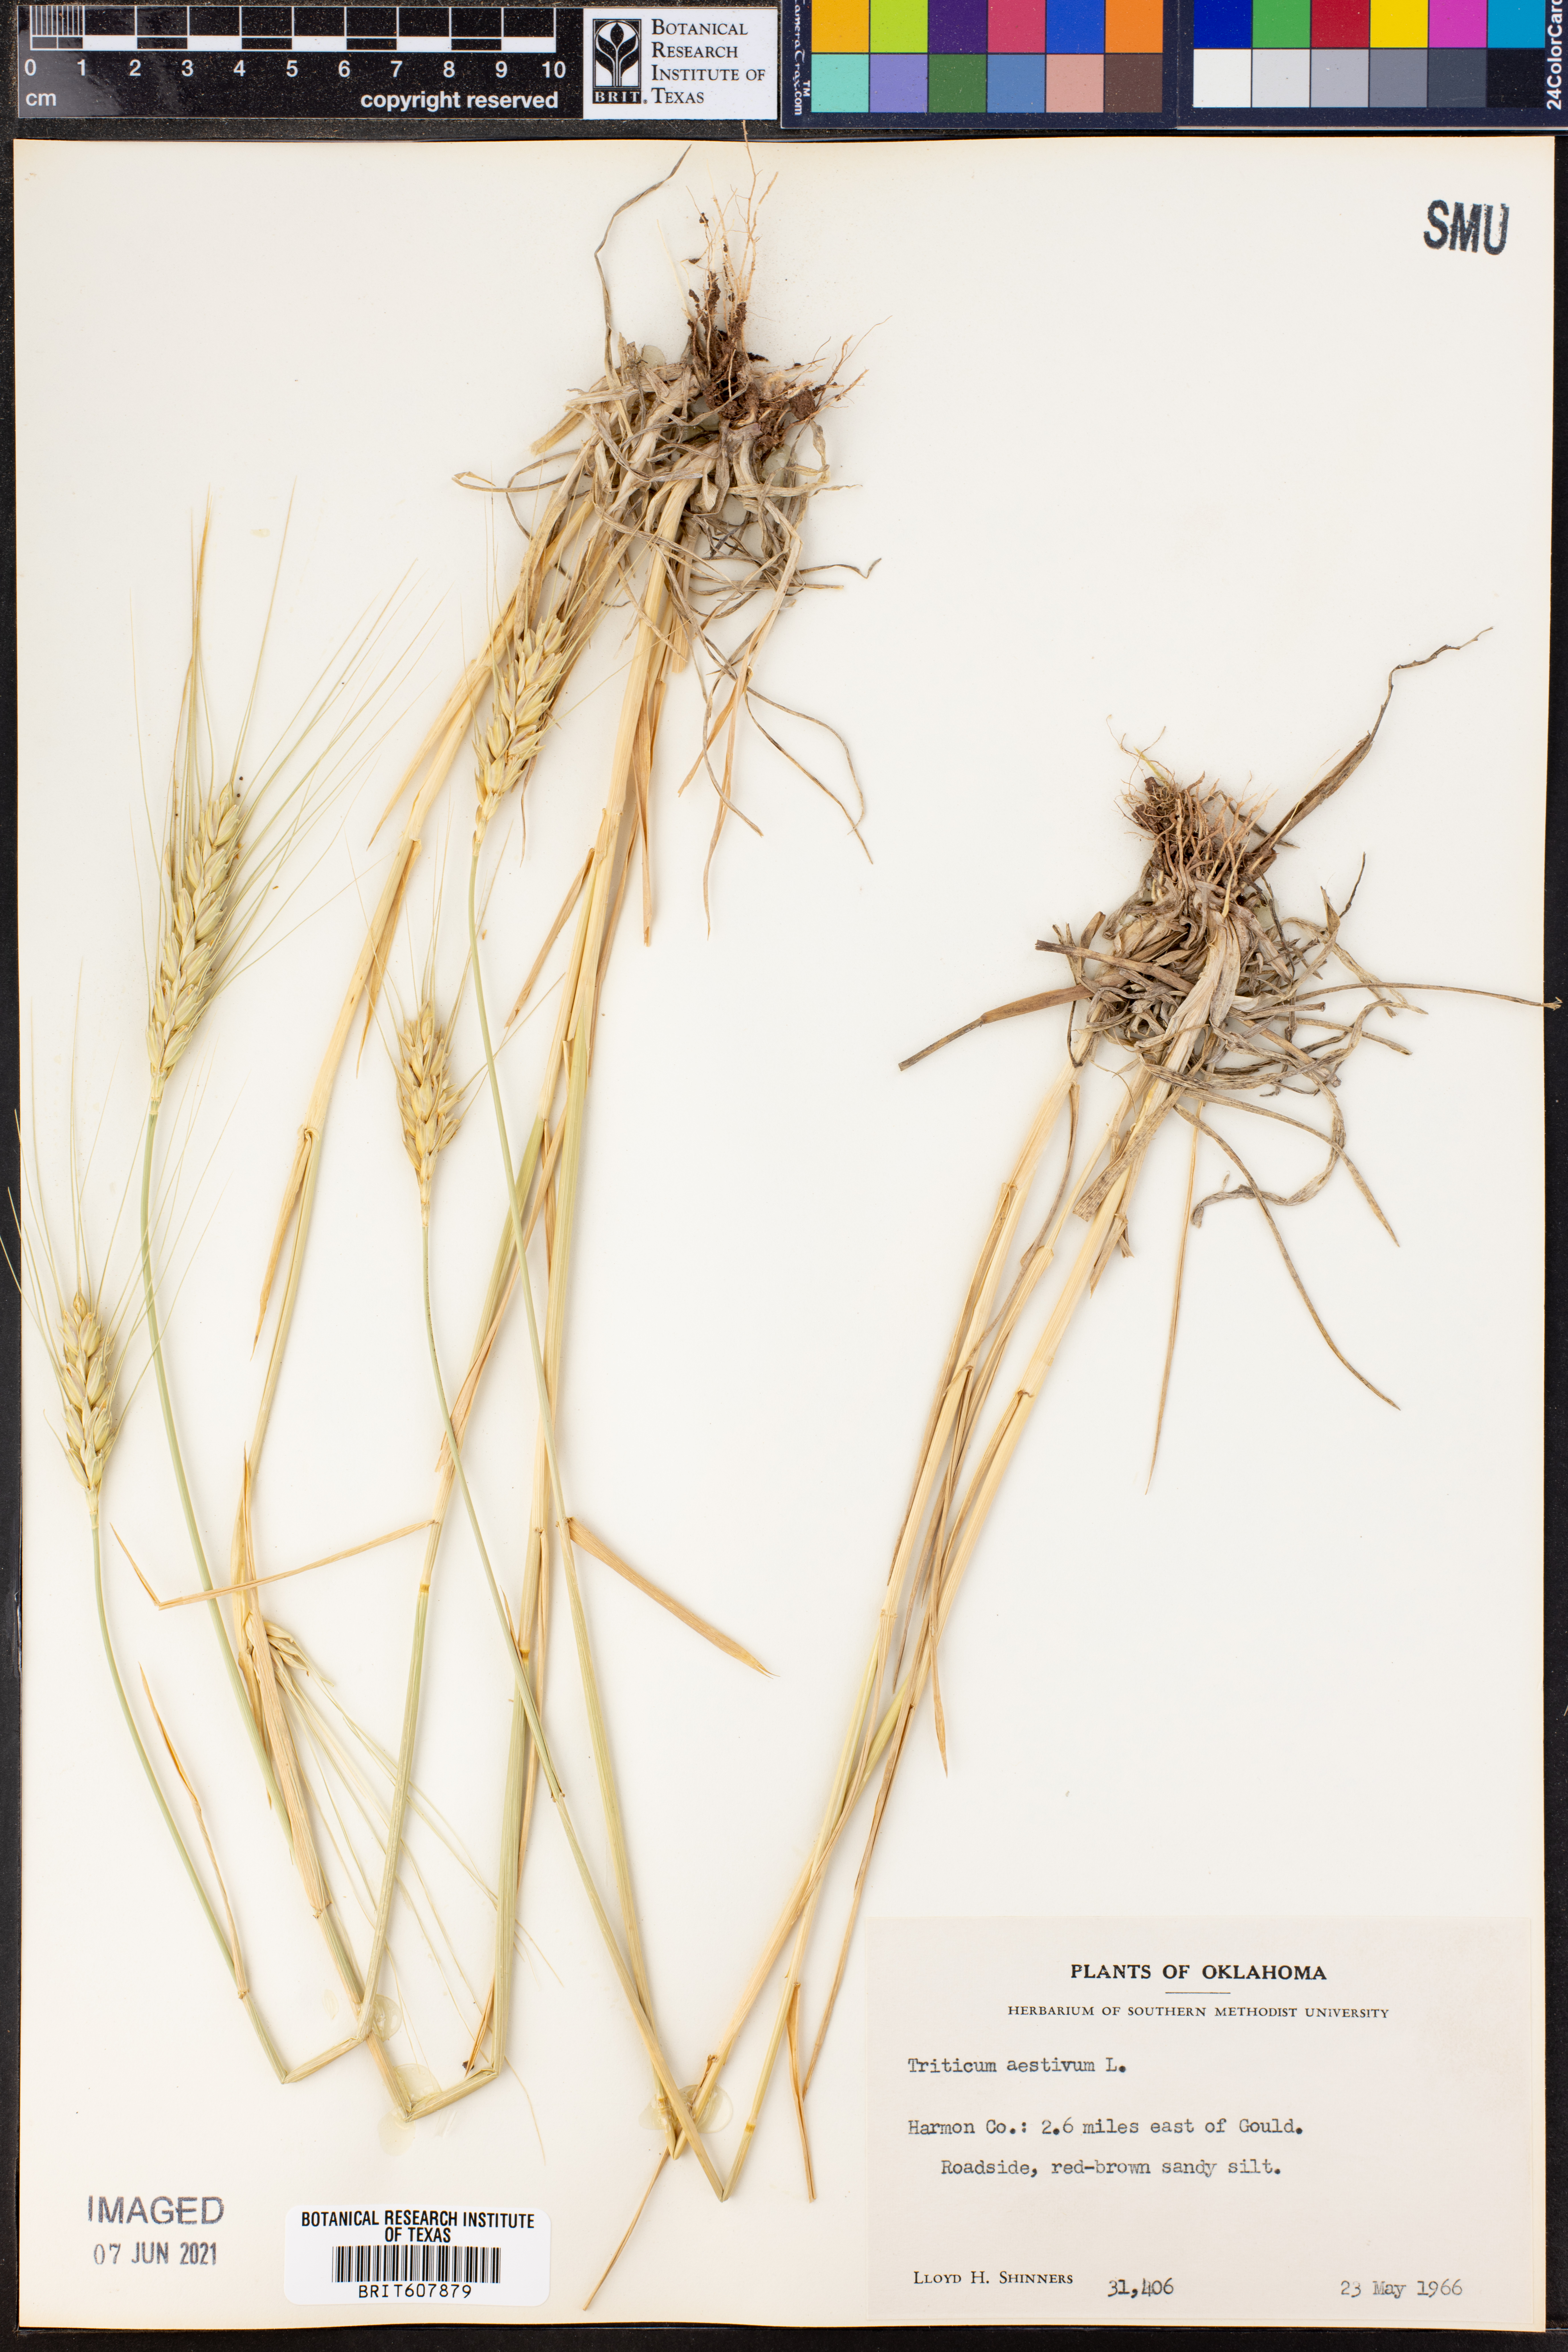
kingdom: Plantae
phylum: Tracheophyta
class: Liliopsida
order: Poales
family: Poaceae
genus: Triticum
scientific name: Triticum aestivum
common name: Common wheat
